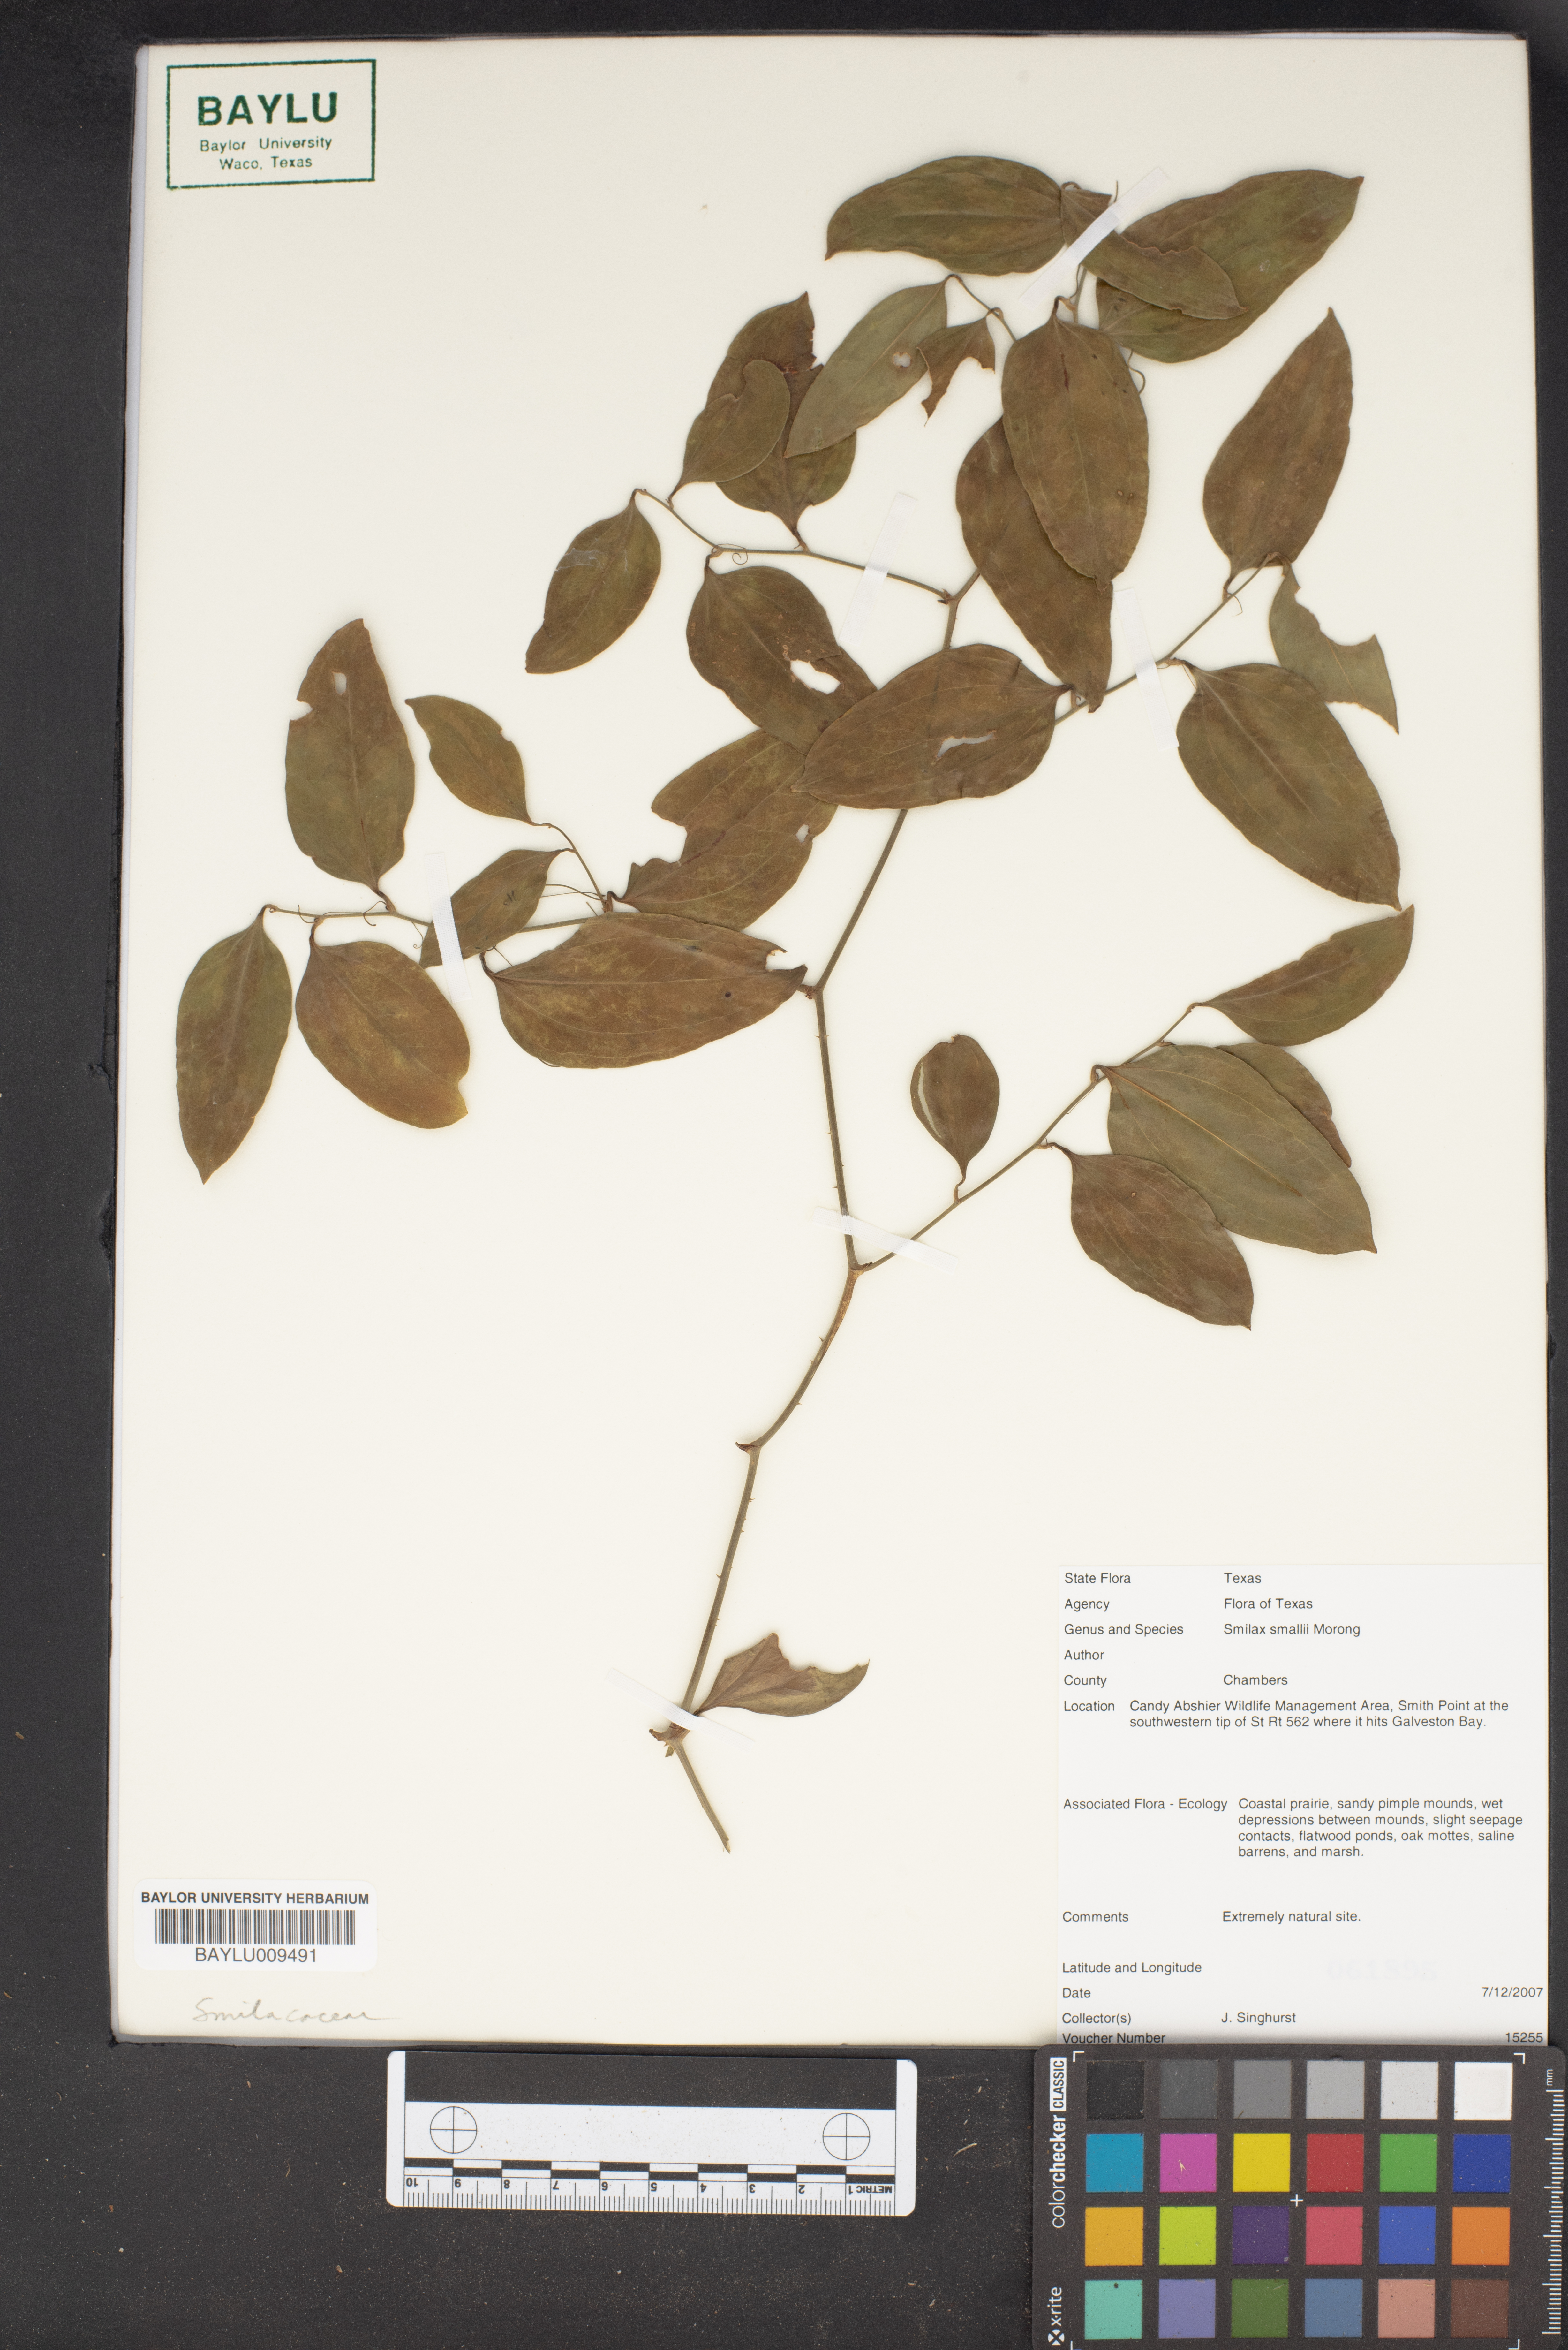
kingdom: Plantae
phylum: Tracheophyta
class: Liliopsida
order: Liliales
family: Smilacaceae
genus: Smilax
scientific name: Smilax maritima
